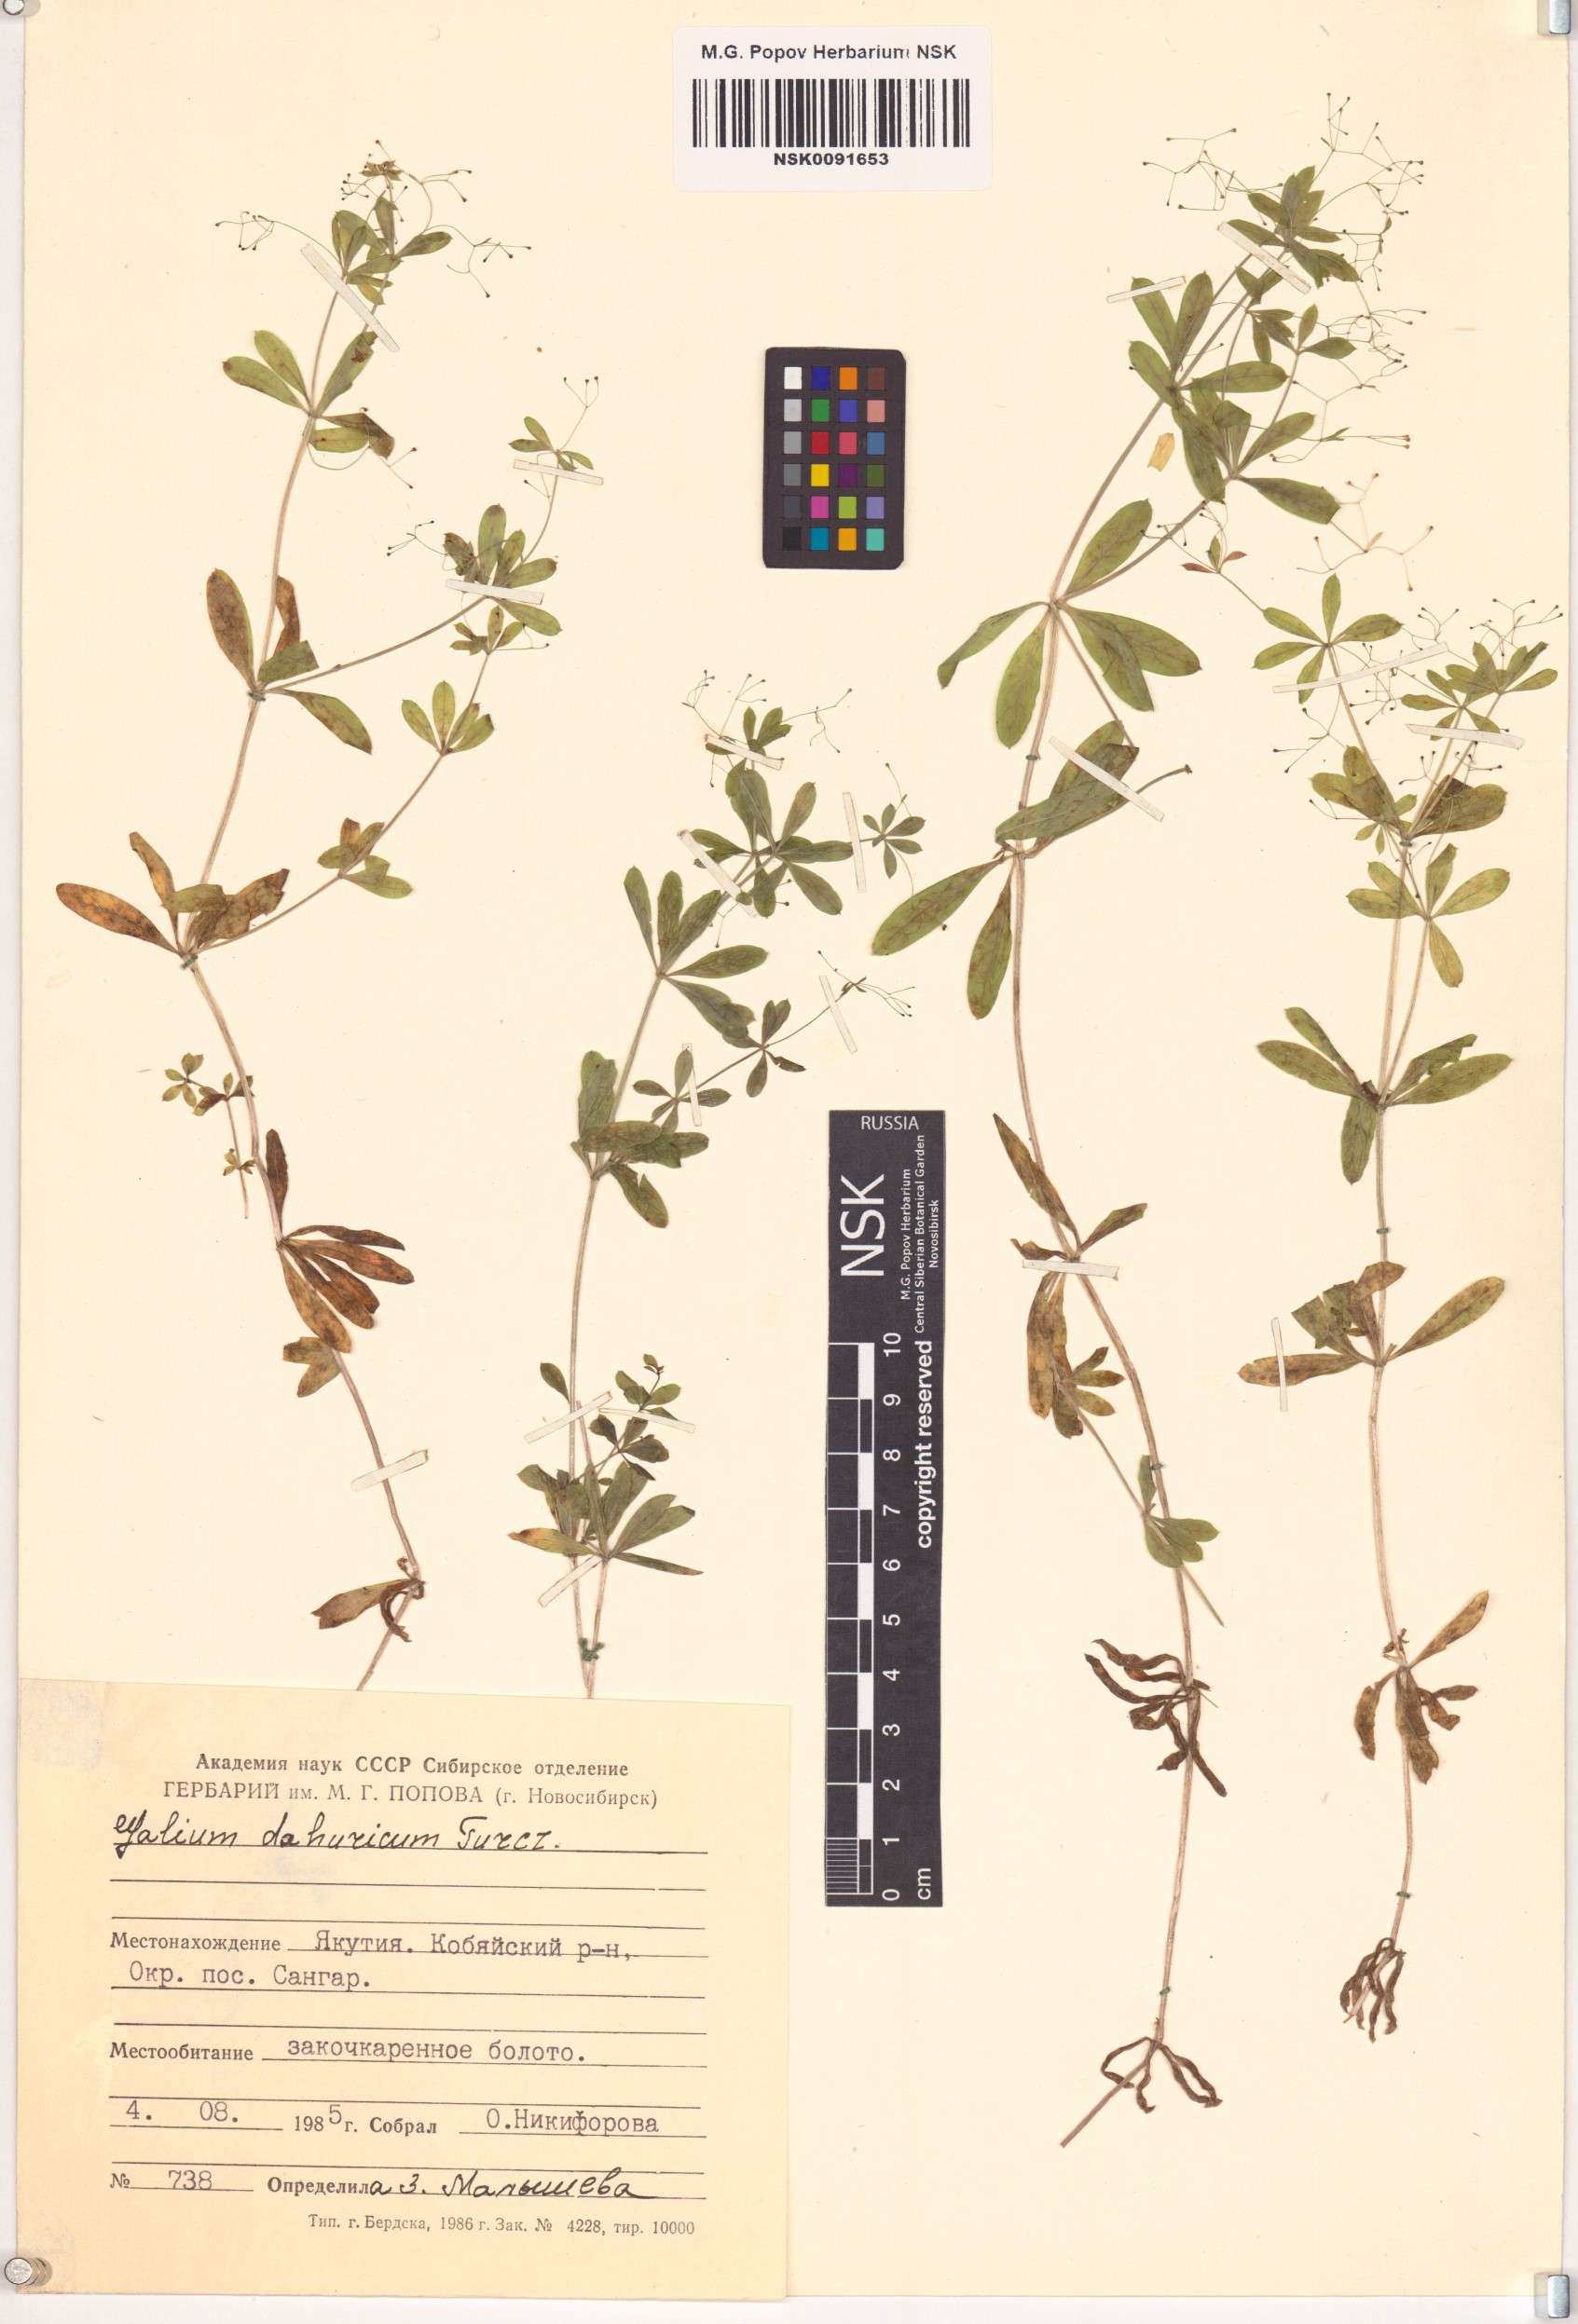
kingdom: Plantae
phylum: Tracheophyta
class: Magnoliopsida
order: Gentianales
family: Rubiaceae
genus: Galium
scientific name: Galium dahuricum
